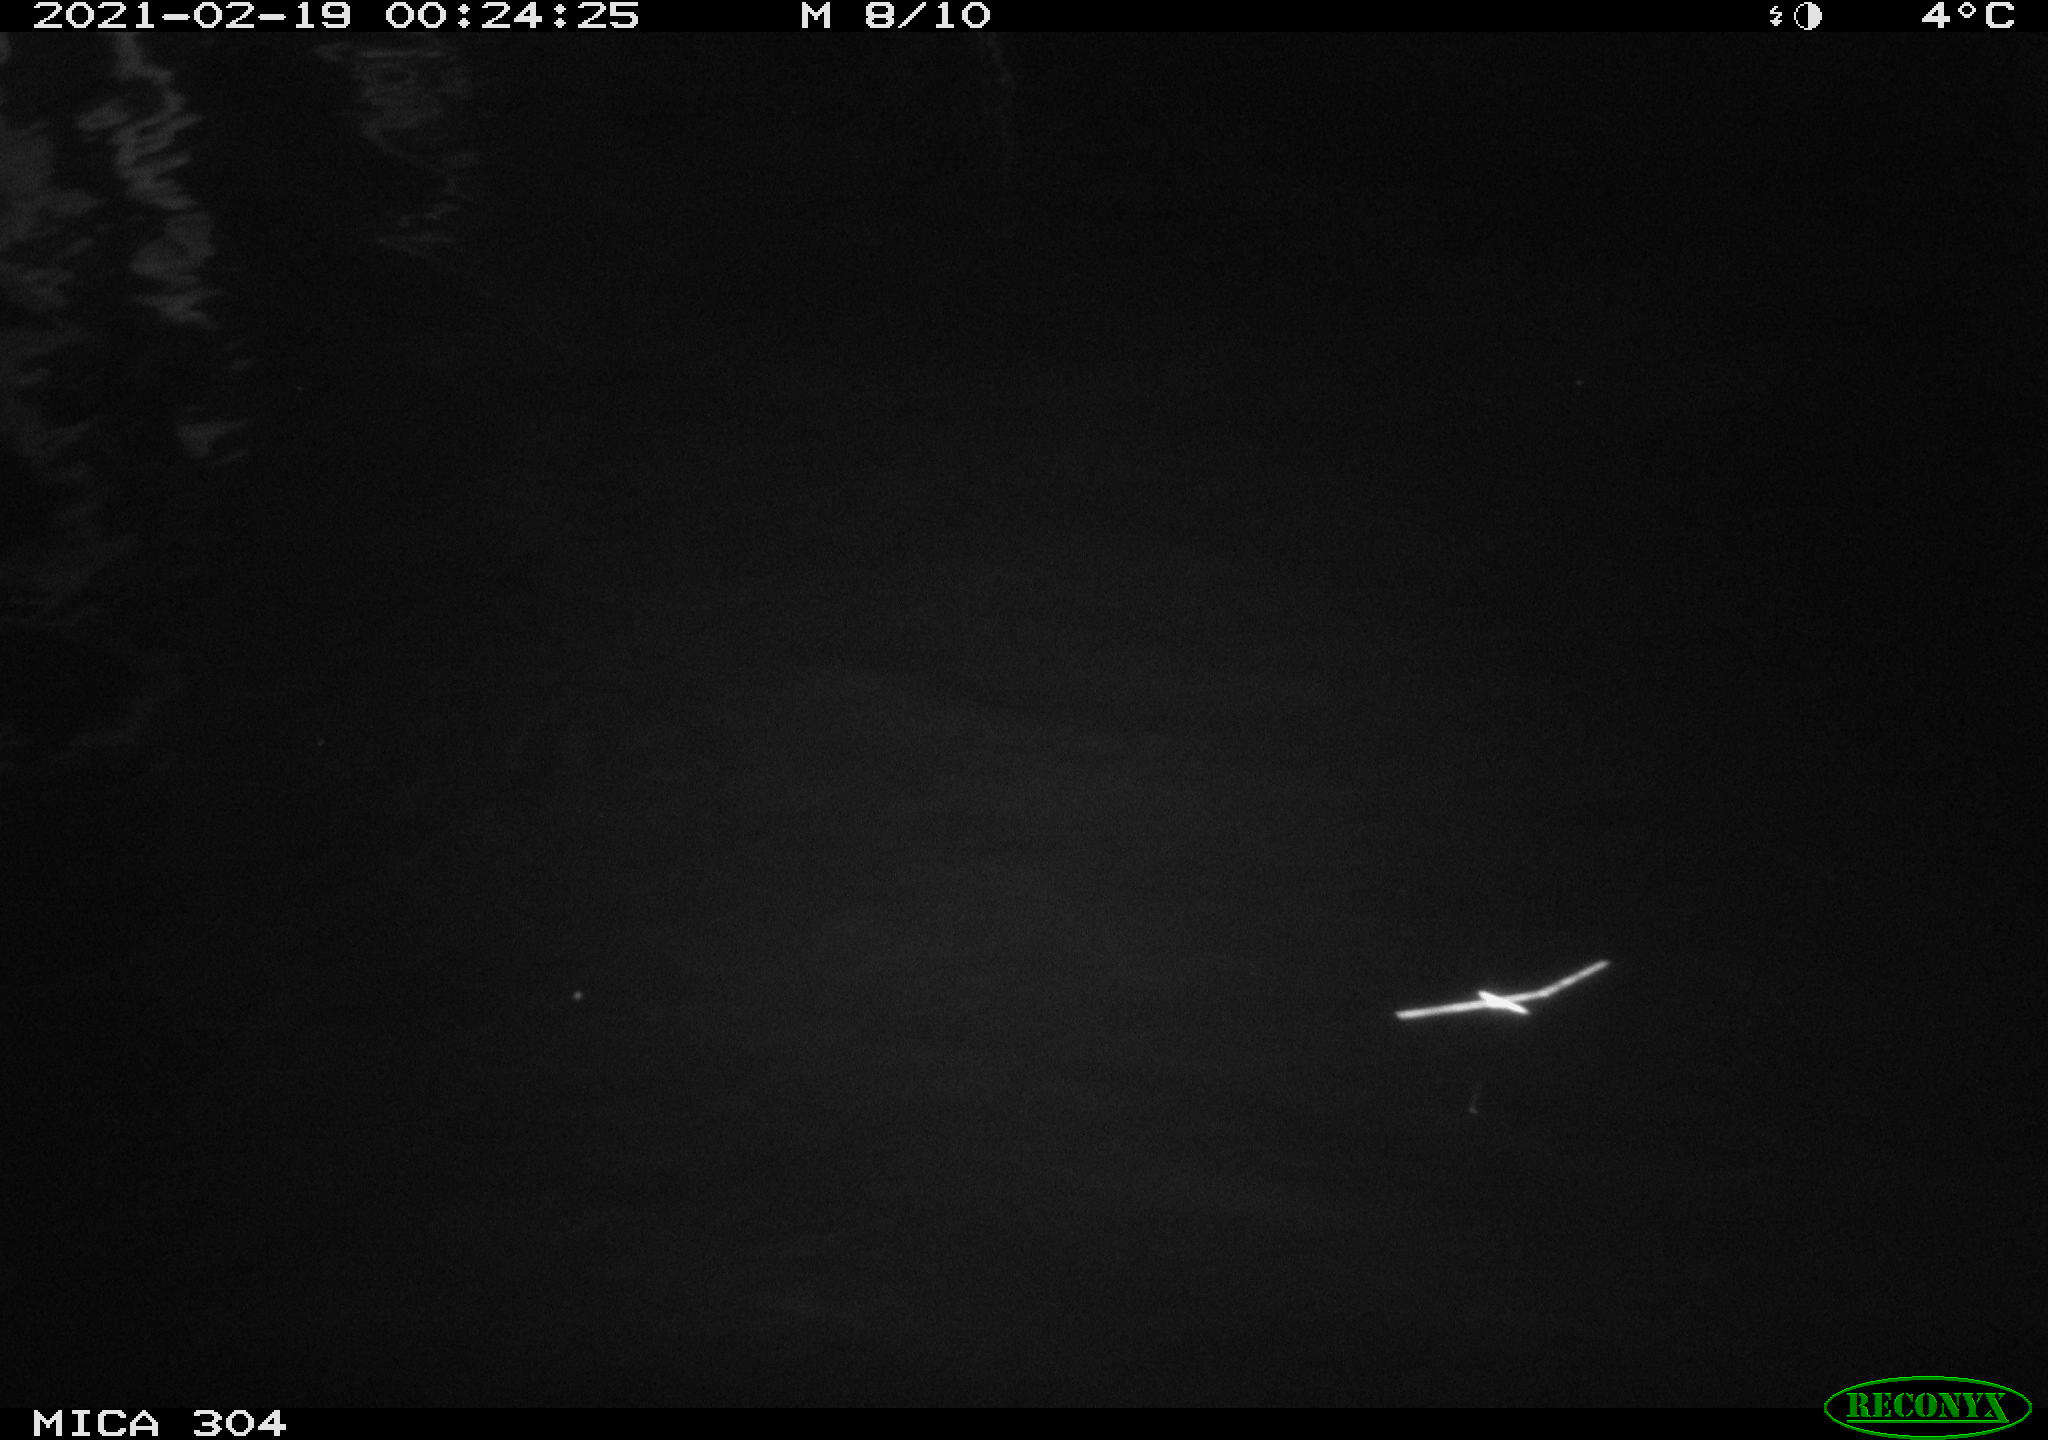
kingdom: Animalia
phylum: Chordata
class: Mammalia
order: Rodentia
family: Cricetidae
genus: Ondatra
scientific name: Ondatra zibethicus
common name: Muskrat
